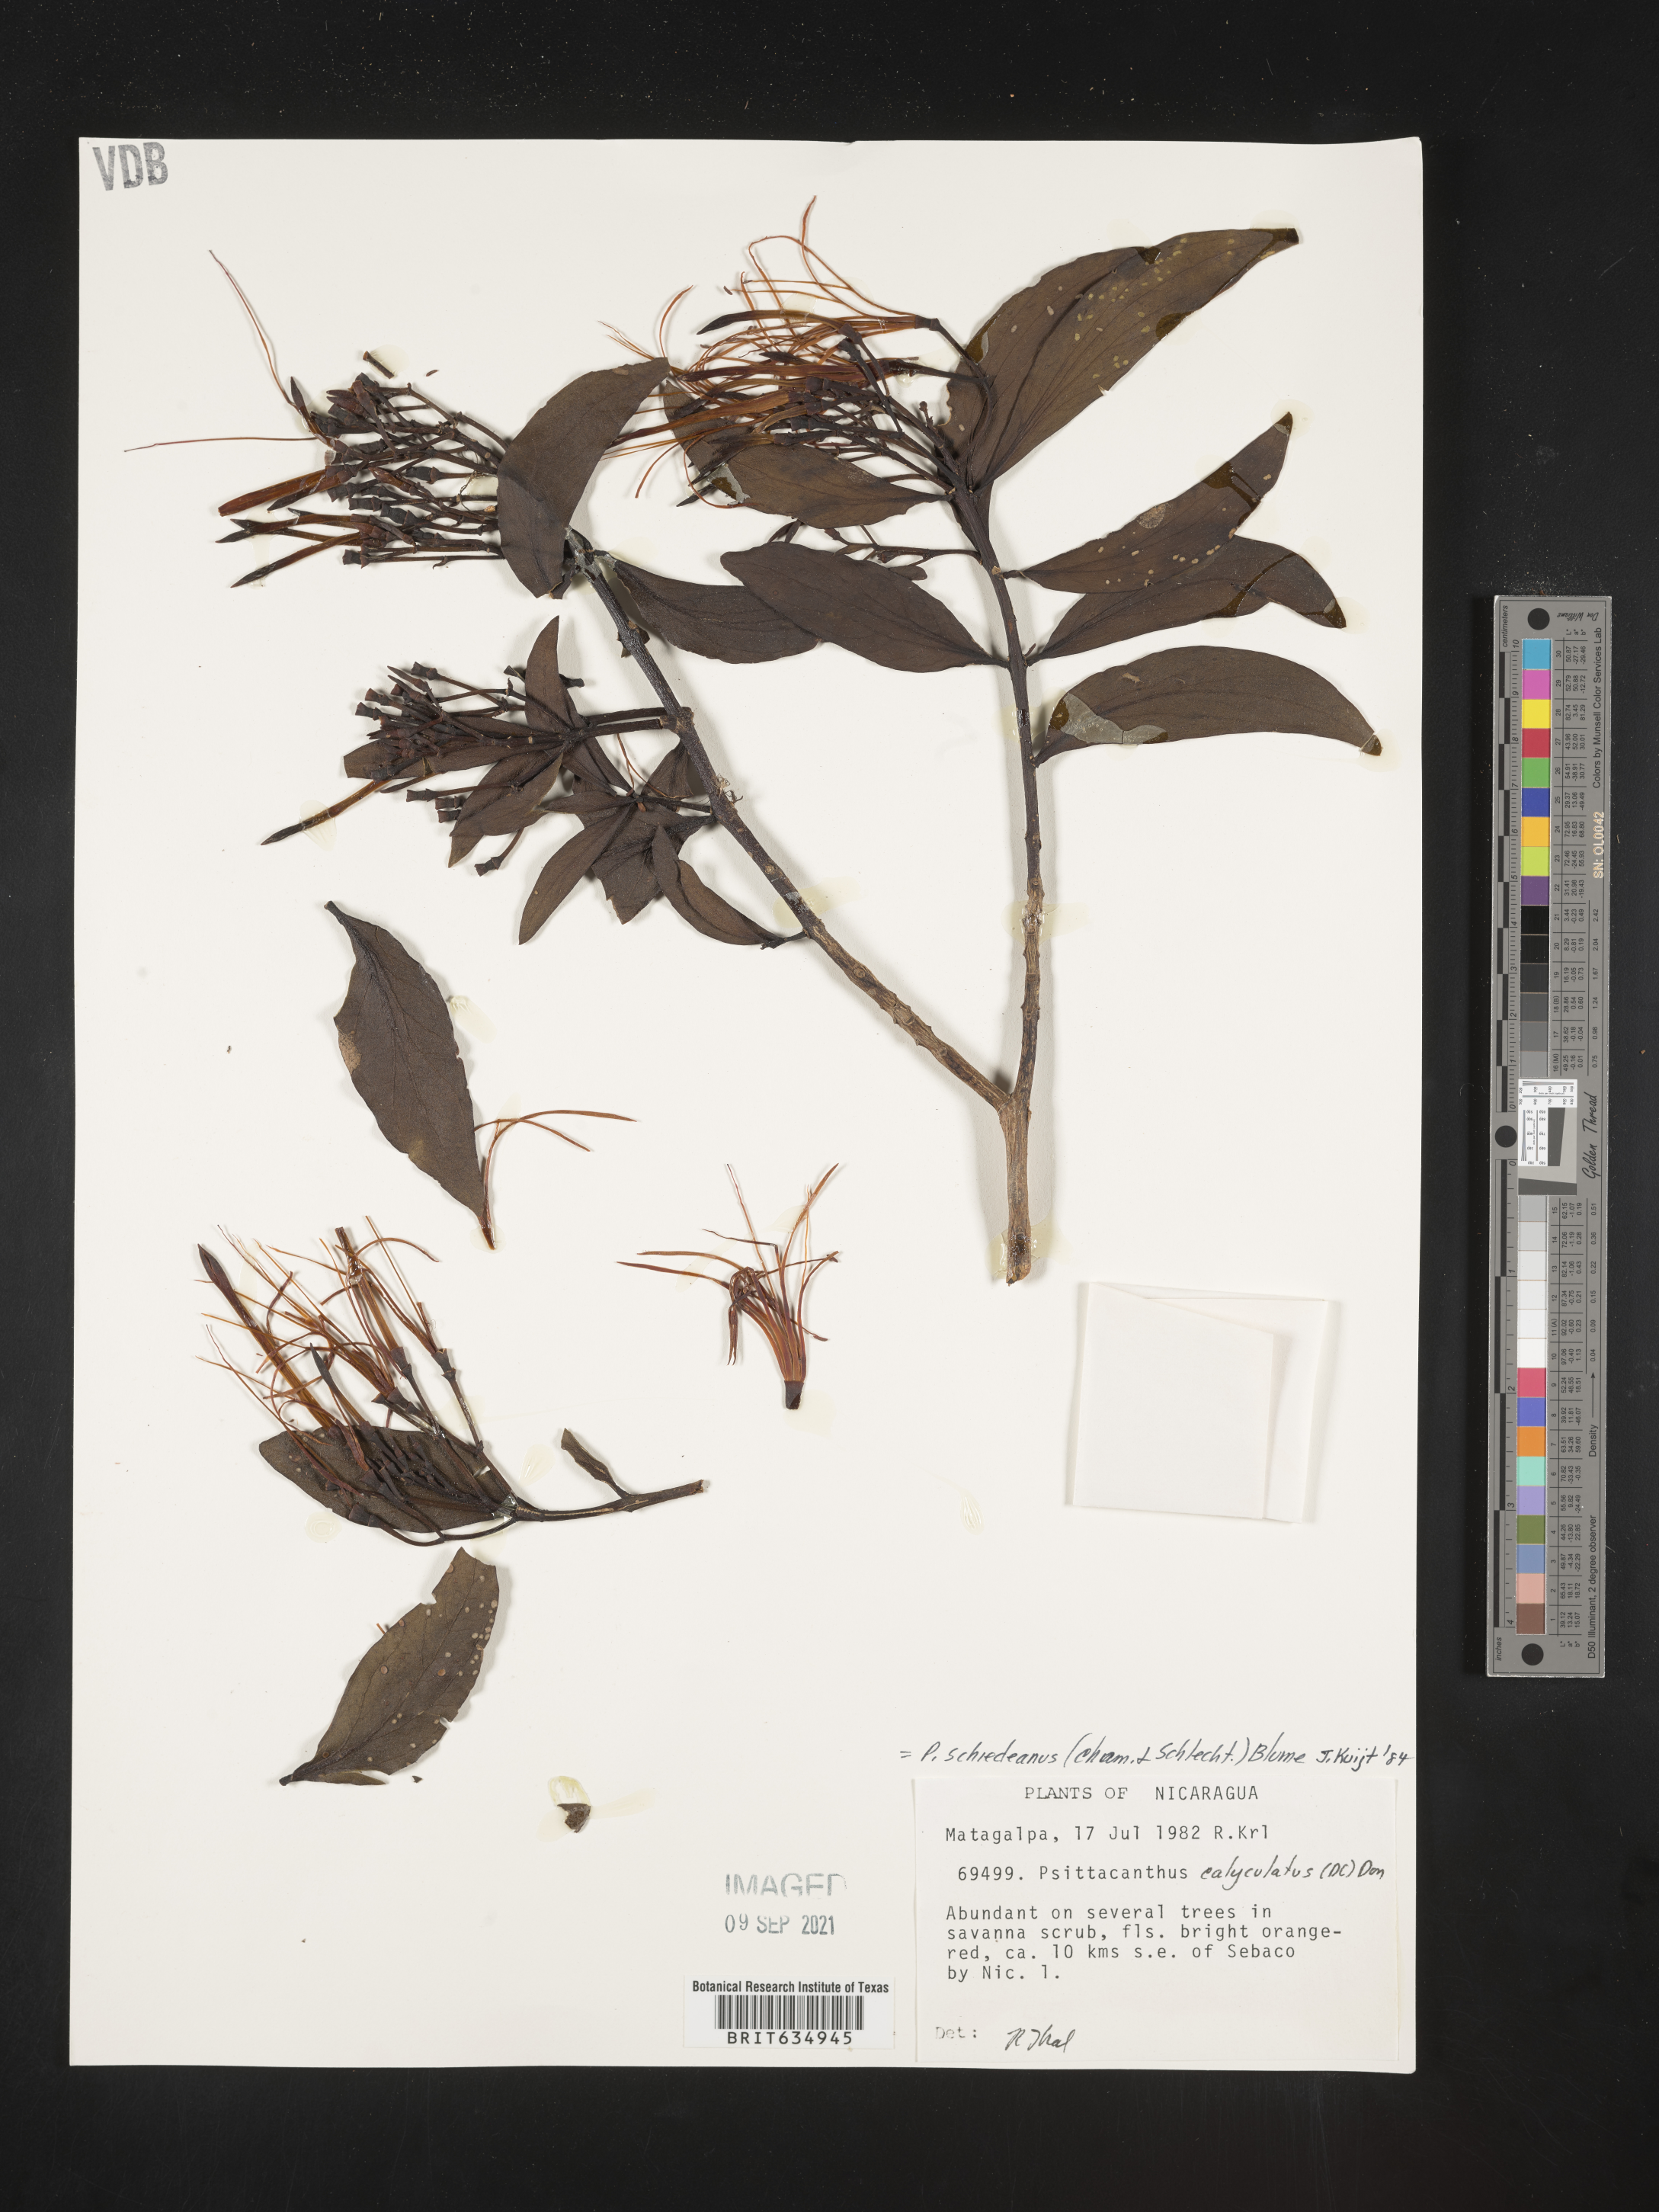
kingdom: Plantae
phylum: Tracheophyta
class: Magnoliopsida
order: Santalales
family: Loranthaceae
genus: Psittacanthus
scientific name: Psittacanthus
